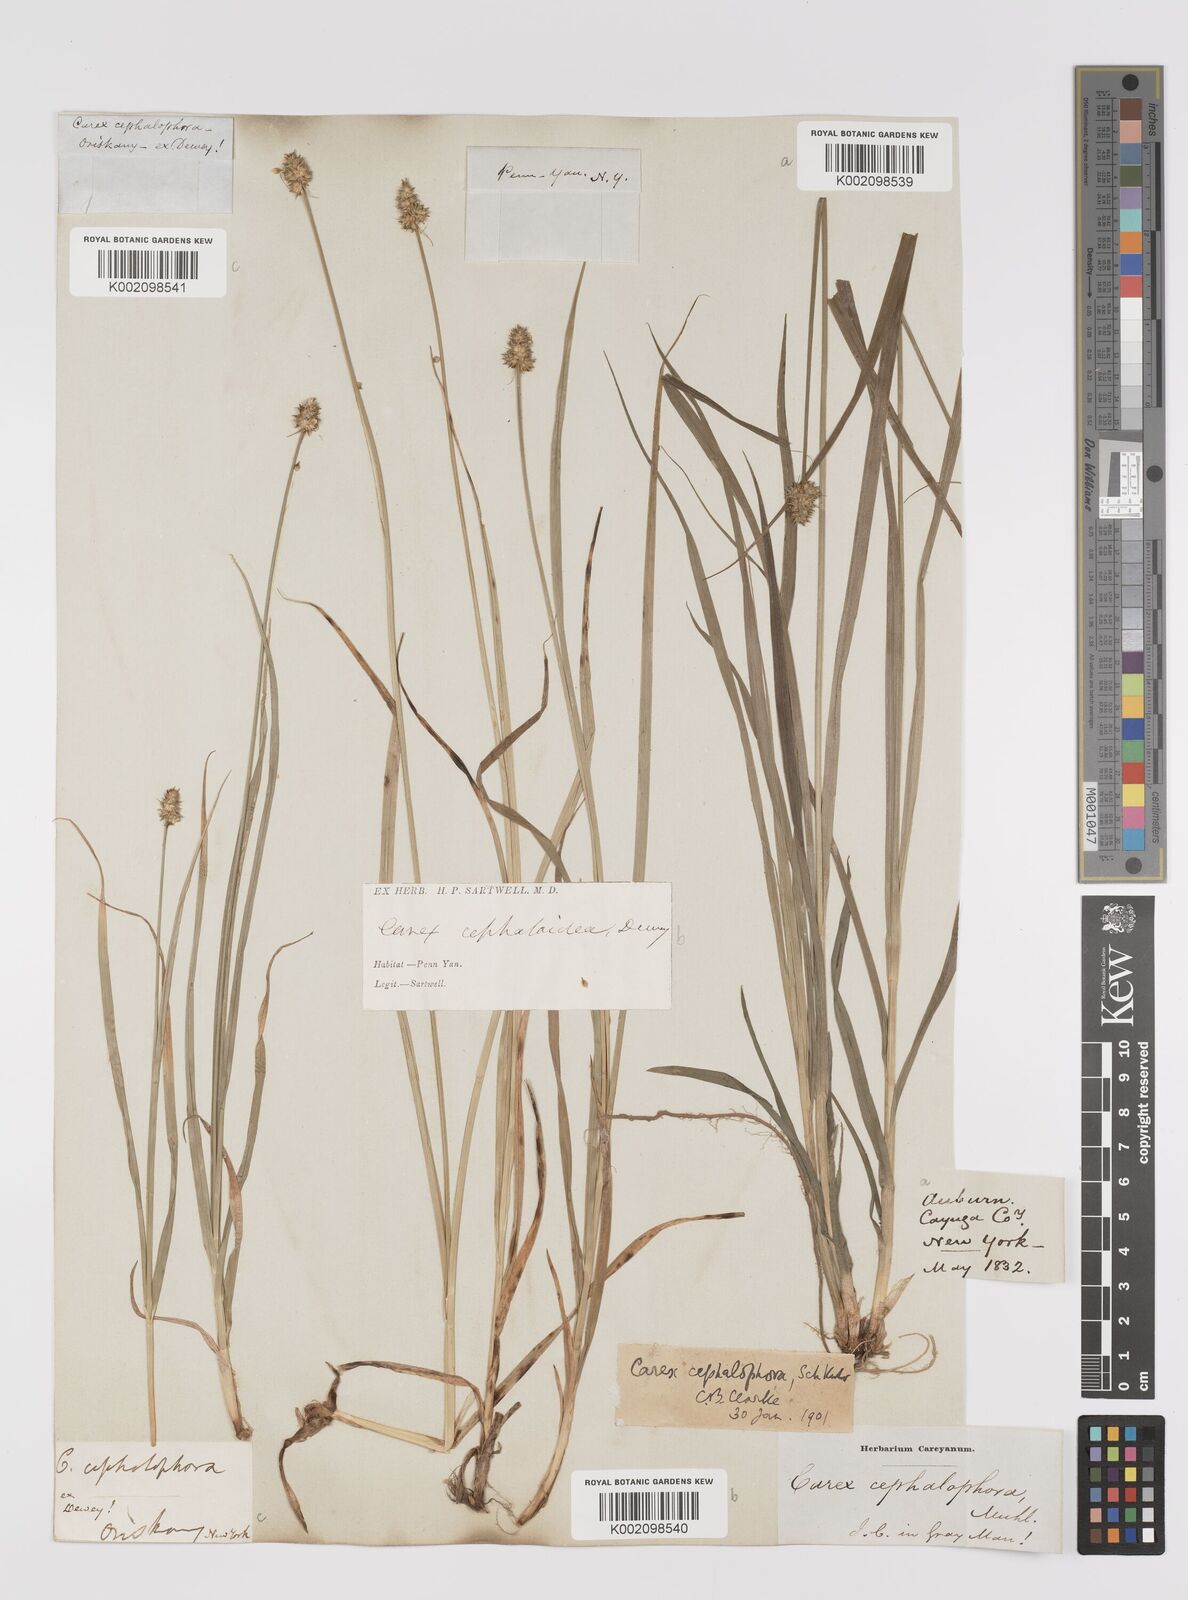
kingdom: Plantae
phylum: Tracheophyta
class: Liliopsida
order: Poales
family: Cyperaceae
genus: Carex
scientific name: Carex cephalophora
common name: Oval-headed sedge
